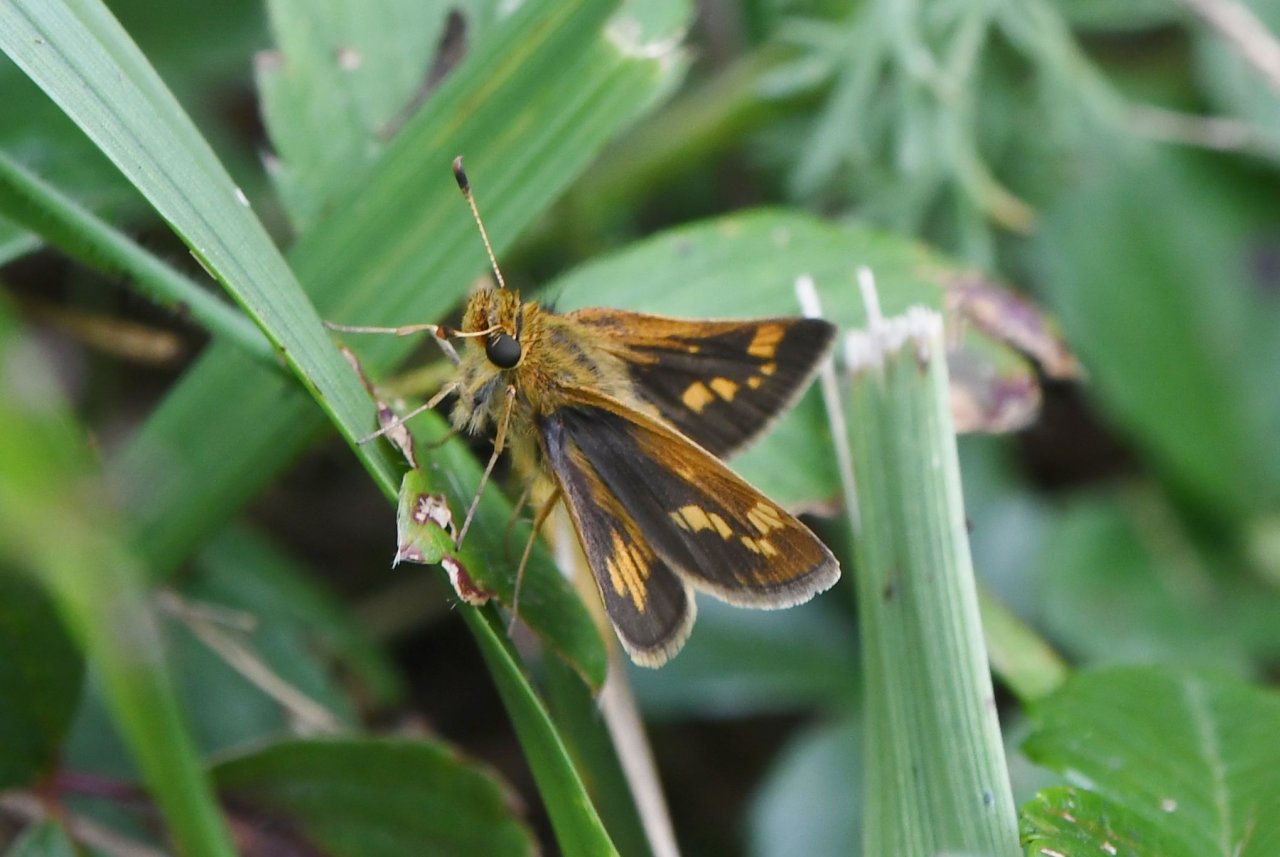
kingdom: Animalia
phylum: Arthropoda
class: Insecta
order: Lepidoptera
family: Hesperiidae
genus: Polites
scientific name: Polites coras
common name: Peck's Skipper
